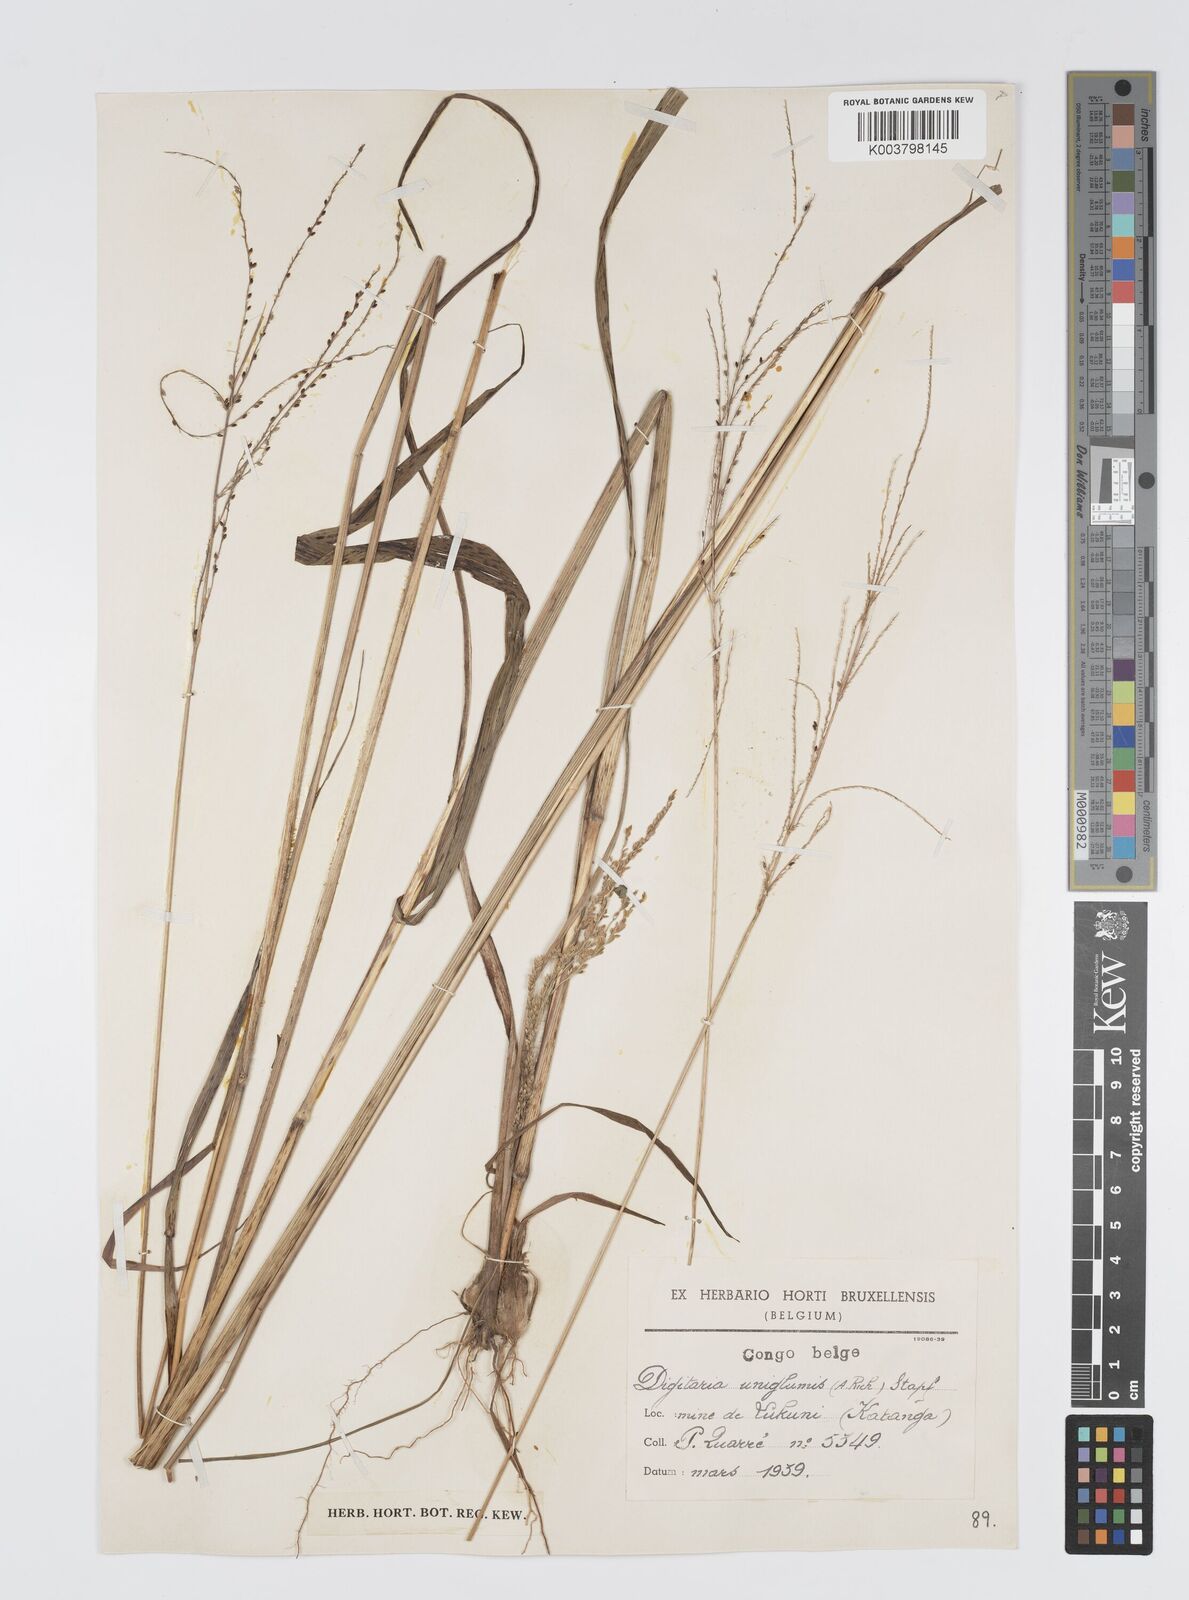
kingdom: Plantae
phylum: Tracheophyta
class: Liliopsida
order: Poales
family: Poaceae
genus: Digitaria
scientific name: Digitaria diagonalis
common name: Brown-seed finger grass
